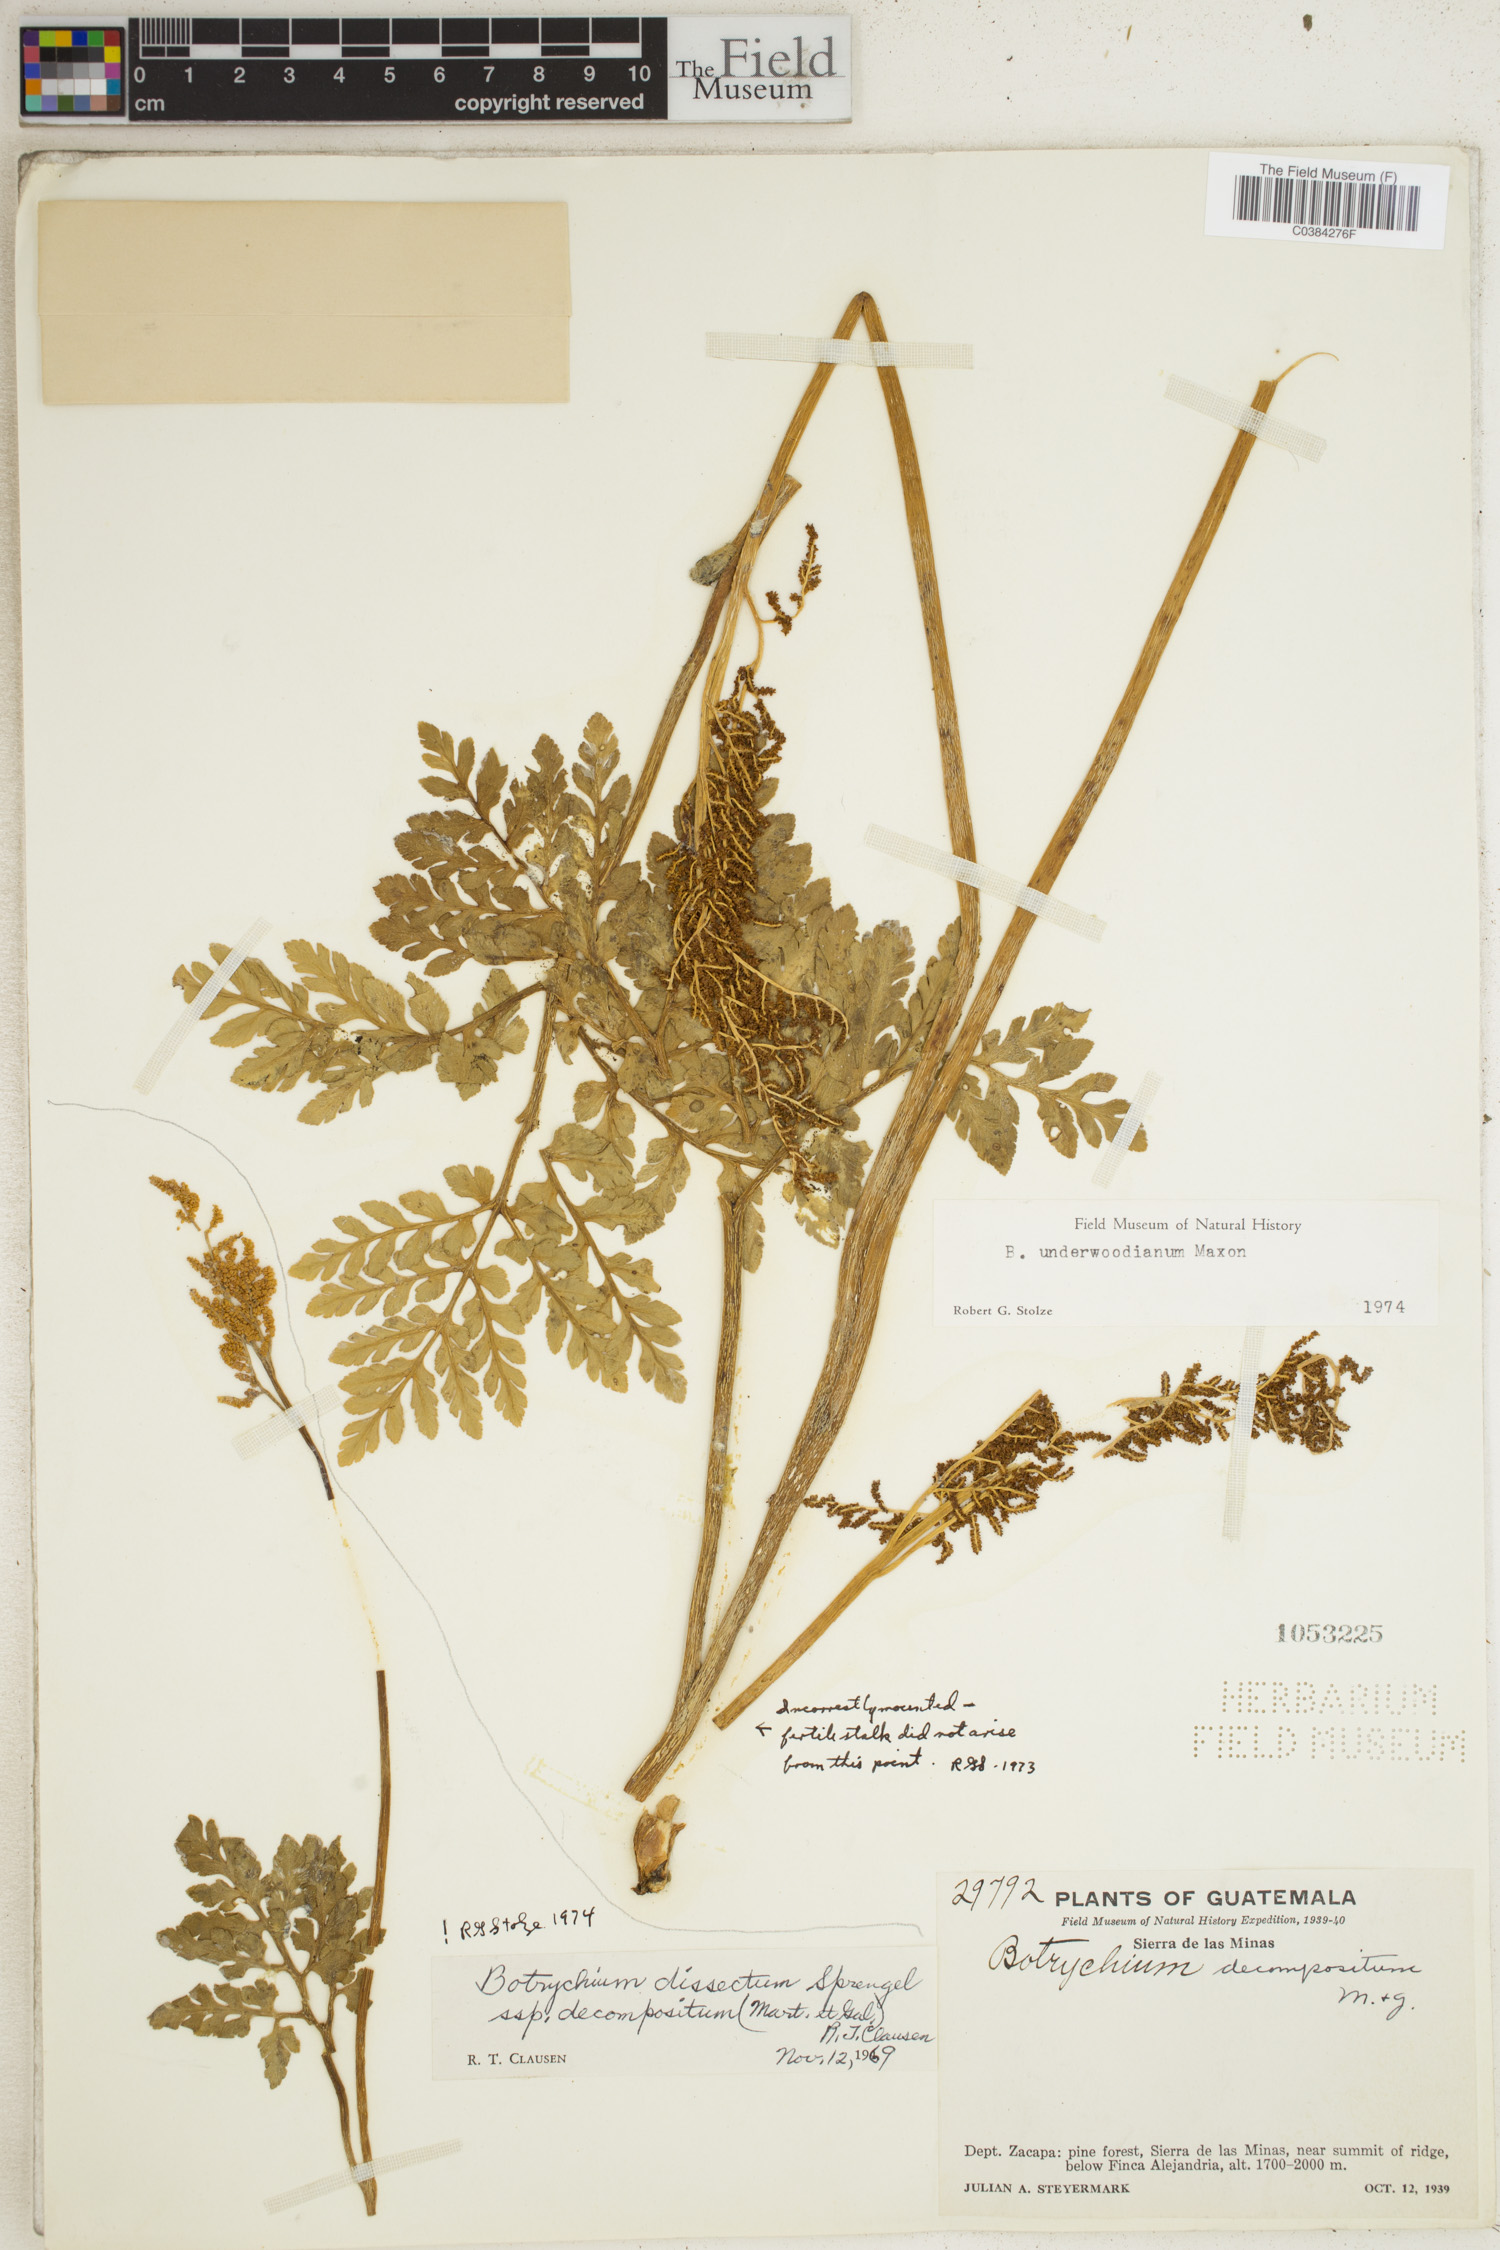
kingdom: Plantae
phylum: Tracheophyta
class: Polypodiopsida
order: Ophioglossales
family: Ophioglossaceae
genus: Sceptridium
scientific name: Sceptridium underwoodianum
